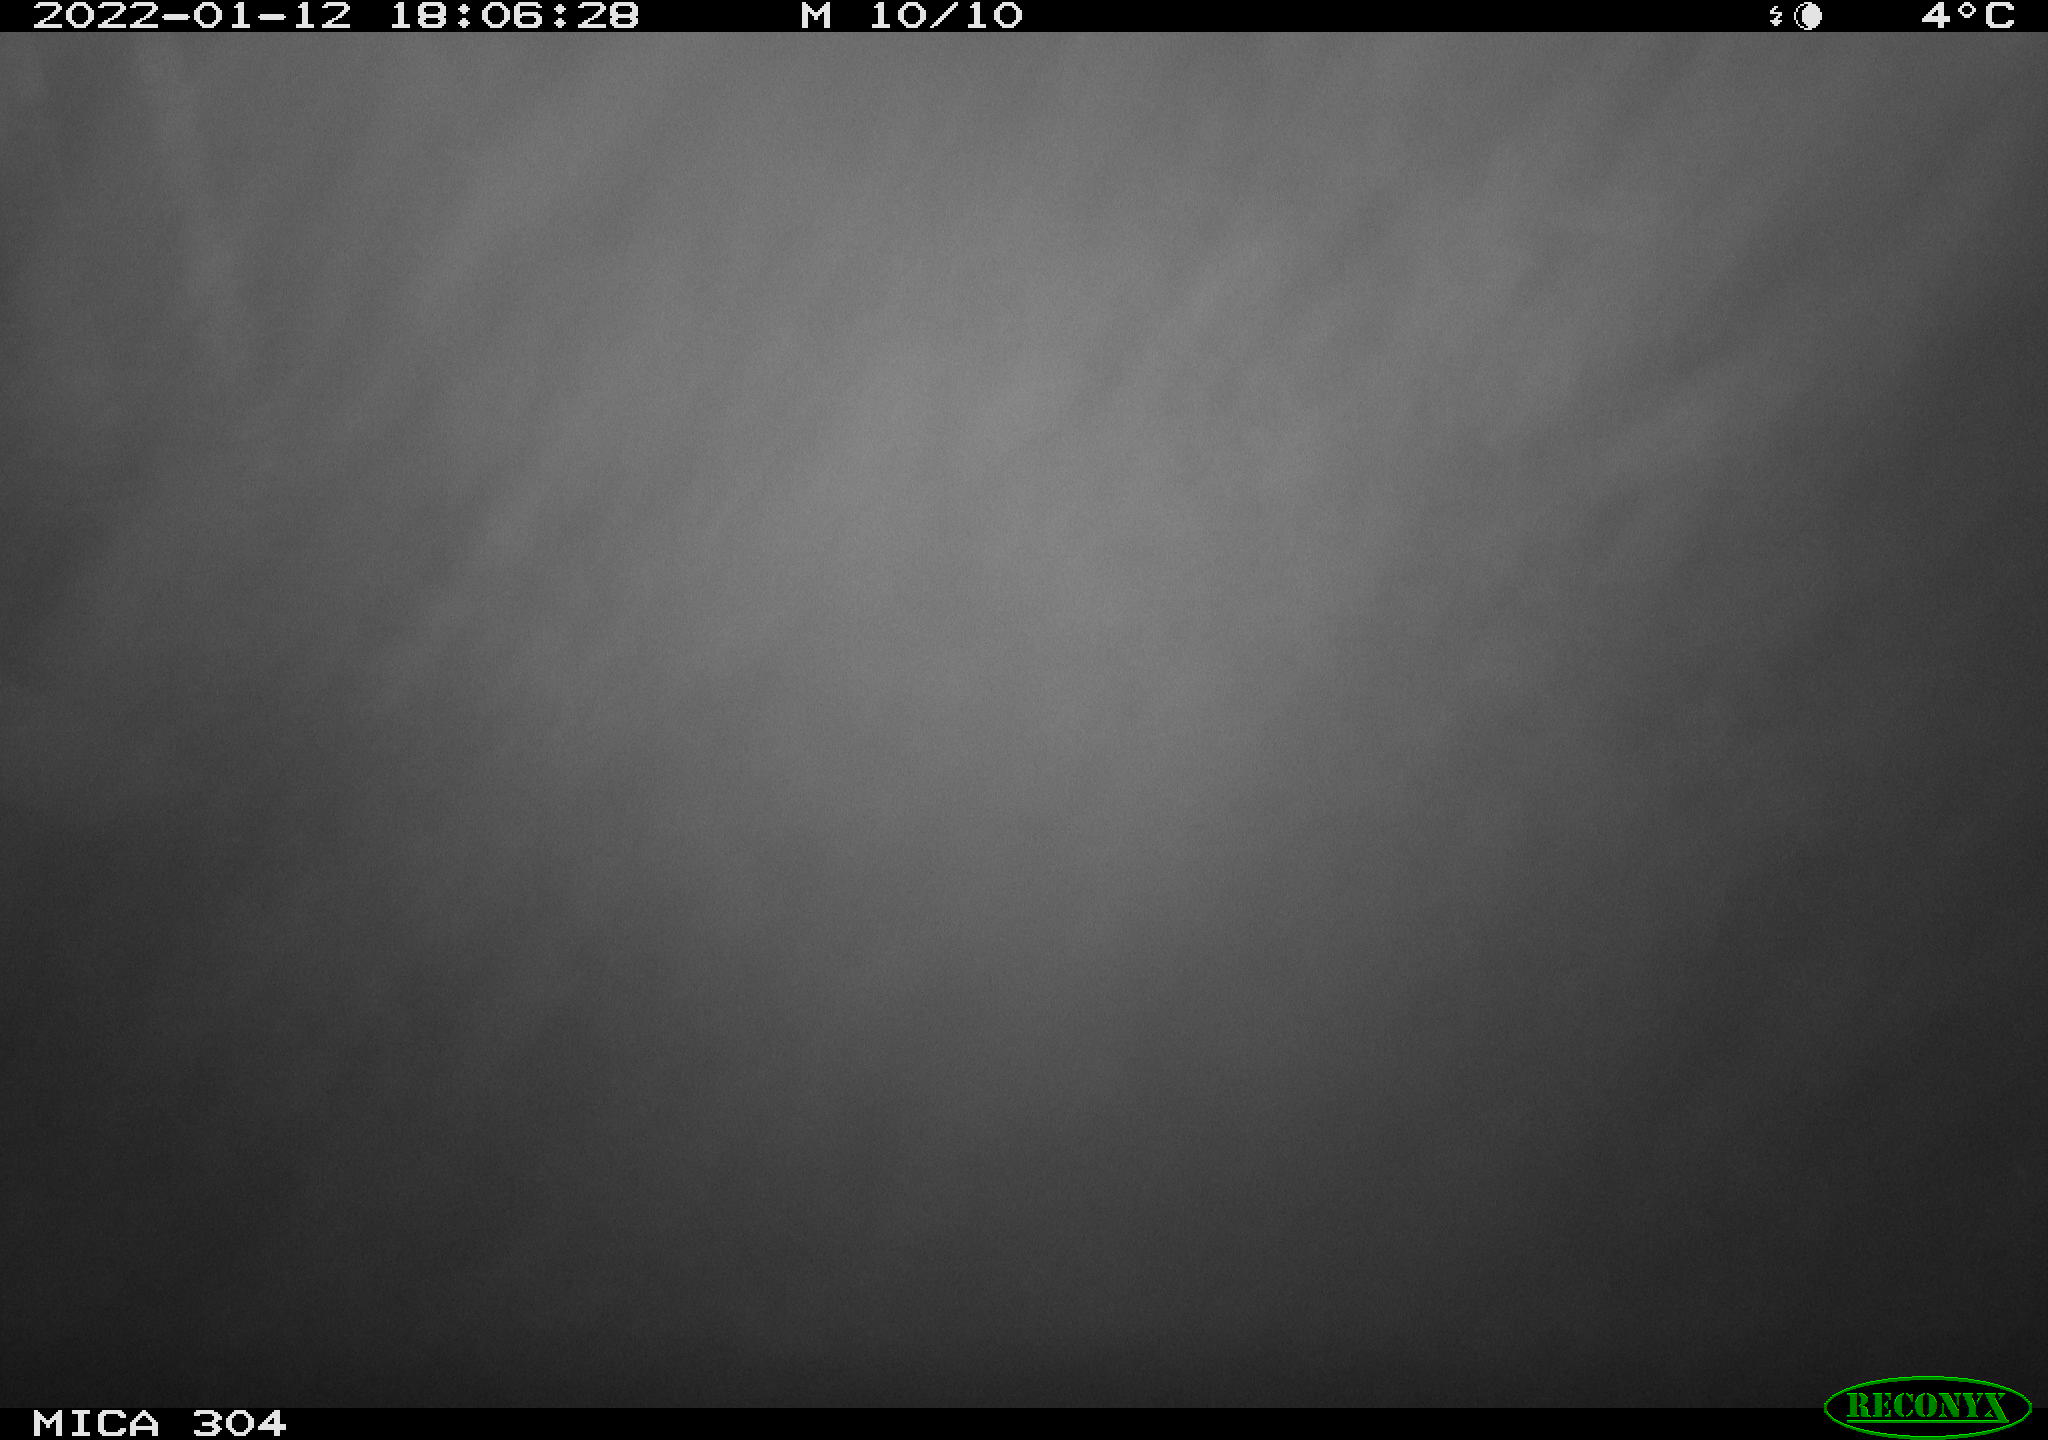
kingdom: Animalia
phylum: Chordata
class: Mammalia
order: Rodentia
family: Muridae
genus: Rattus
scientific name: Rattus norvegicus
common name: Brown rat
